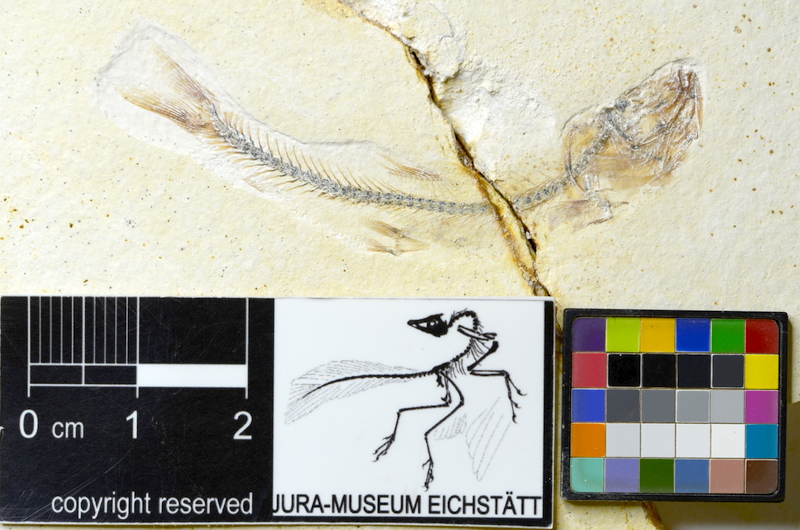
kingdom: Animalia
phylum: Chordata
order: Salmoniformes
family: Orthogonikleithridae
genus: Orthogonikleithrus
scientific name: Orthogonikleithrus hoelli
